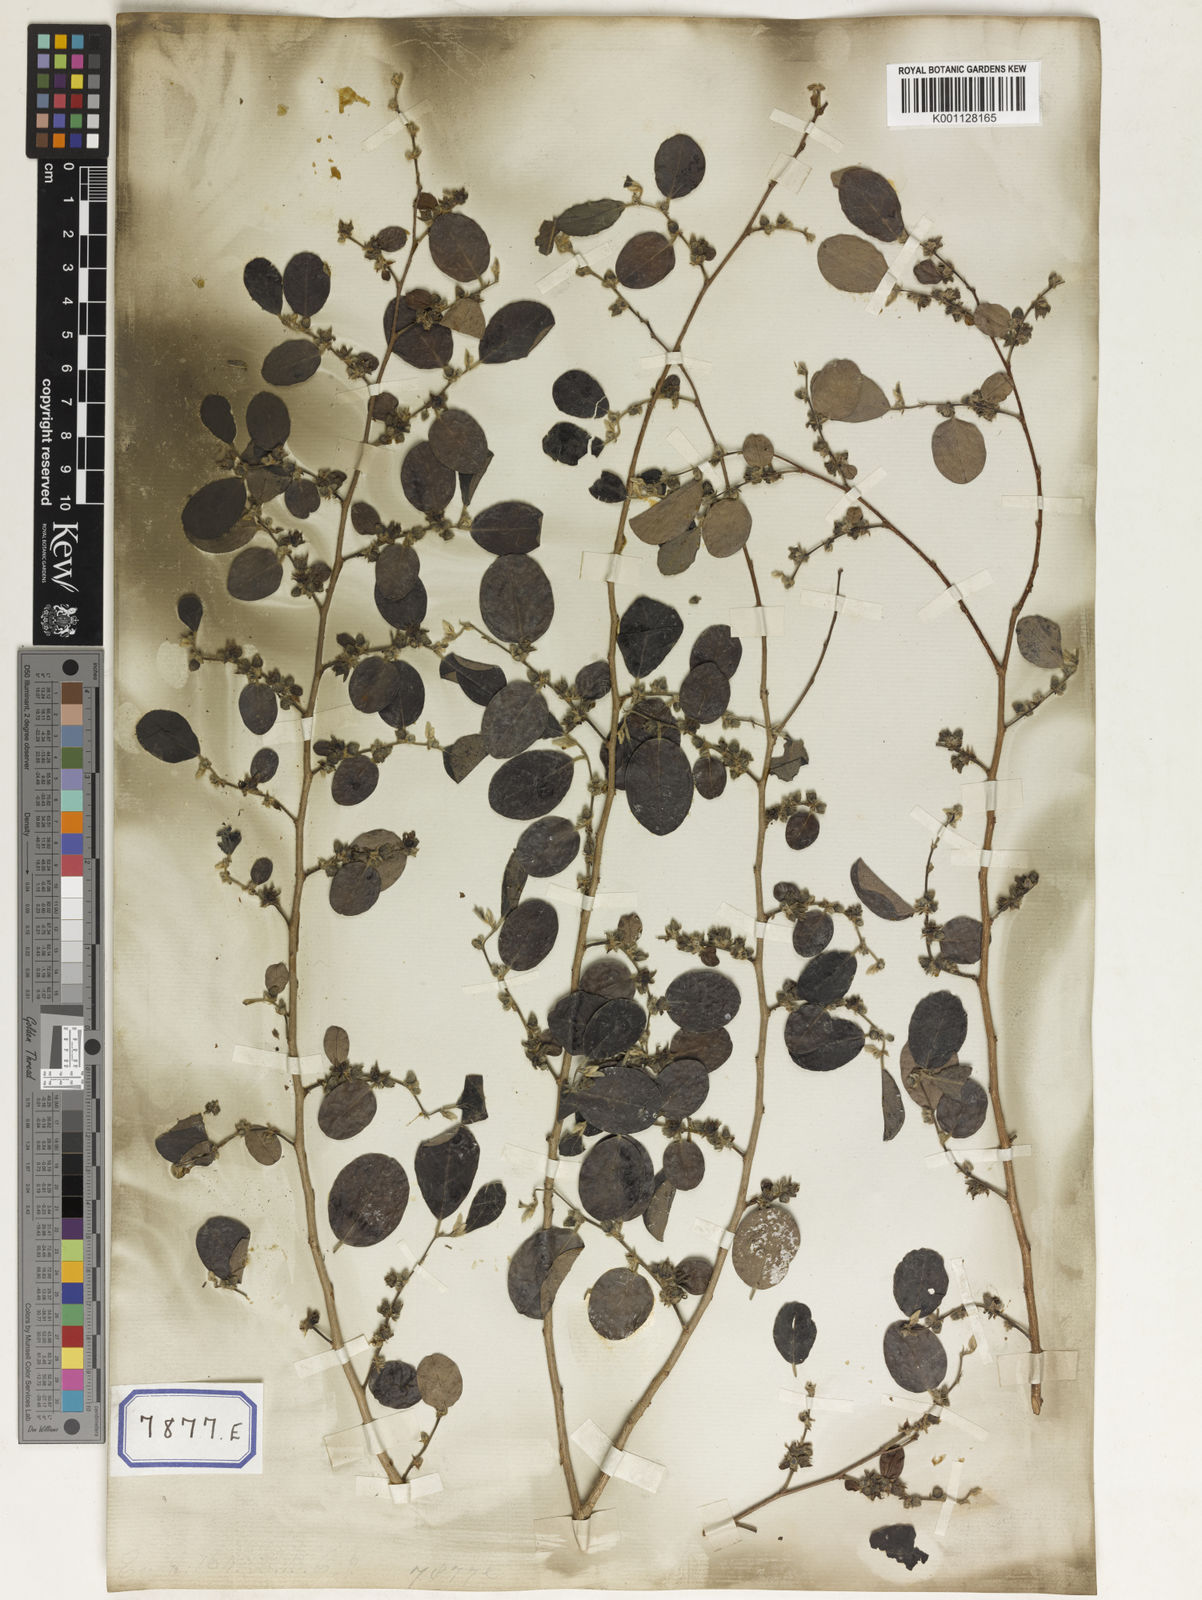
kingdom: Plantae
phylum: Tracheophyta
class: Magnoliopsida
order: Malpighiales
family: Euphorbiaceae
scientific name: Euphorbiaceae
